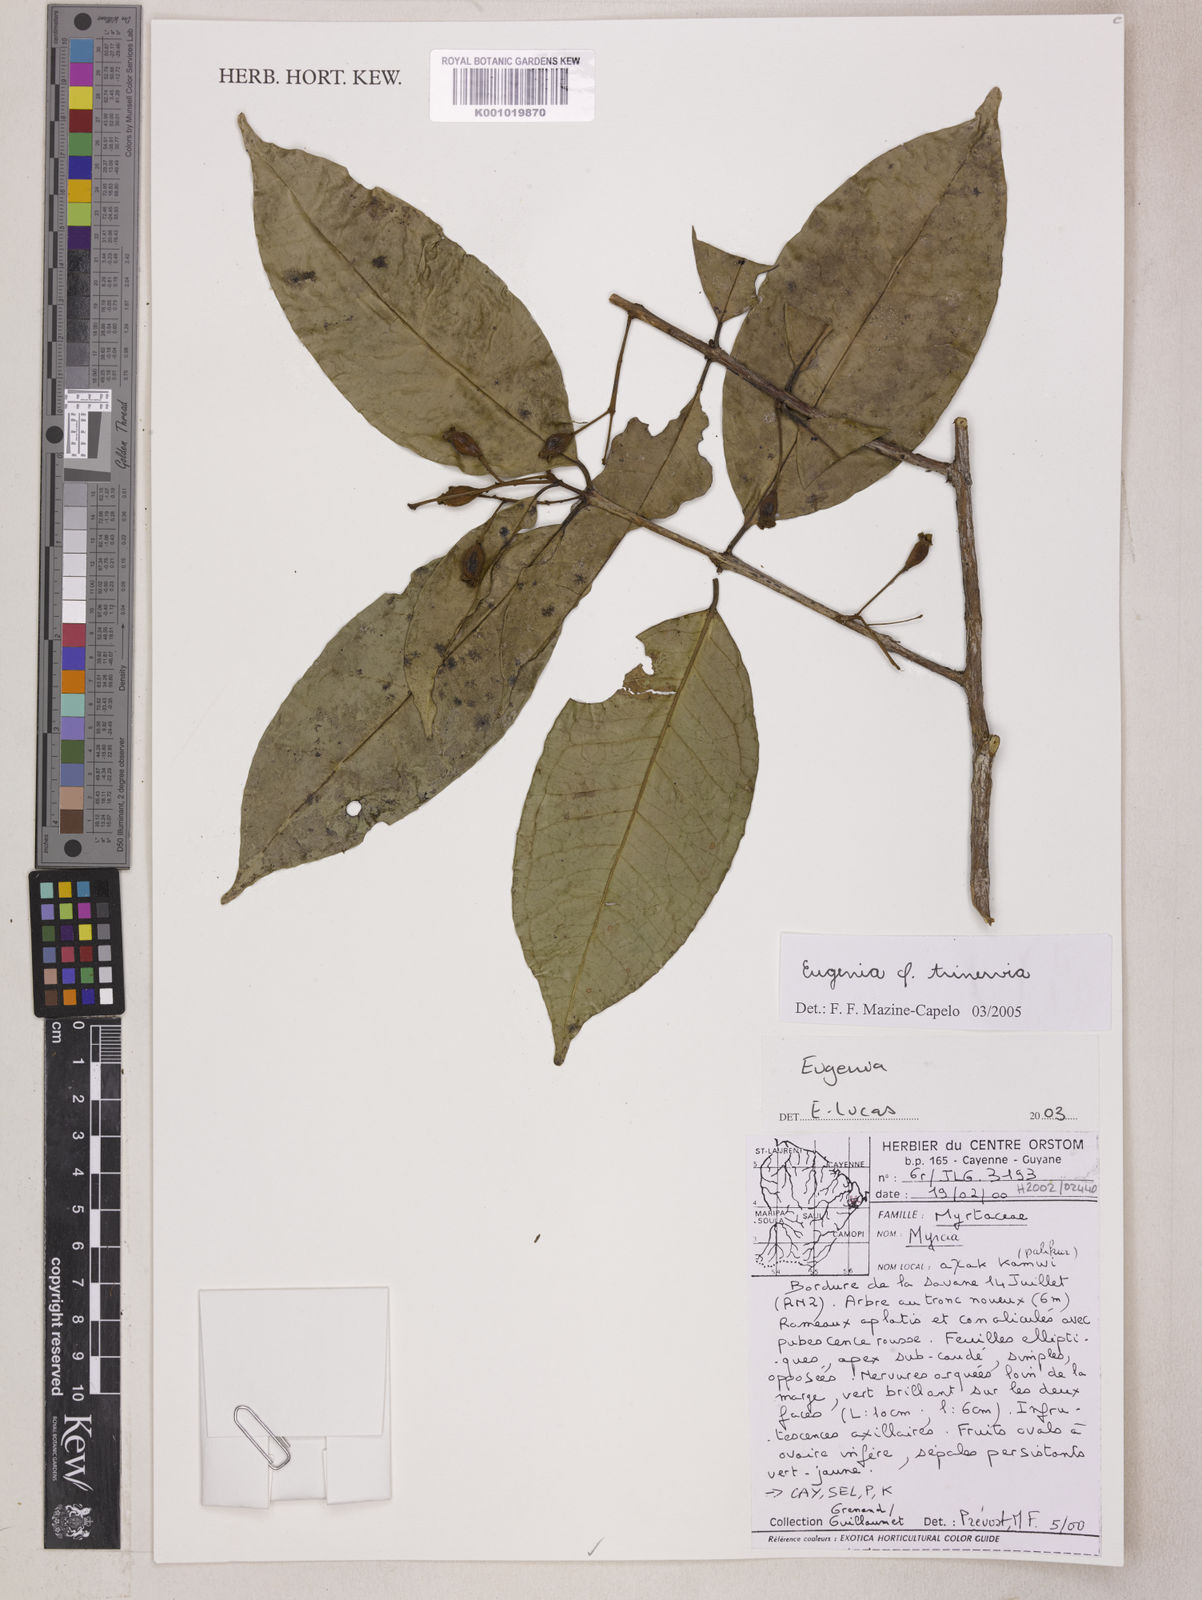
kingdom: Plantae
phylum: Tracheophyta
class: Magnoliopsida
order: Myrtales
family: Myrtaceae
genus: Eugenia
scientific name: Eugenia trinervia
